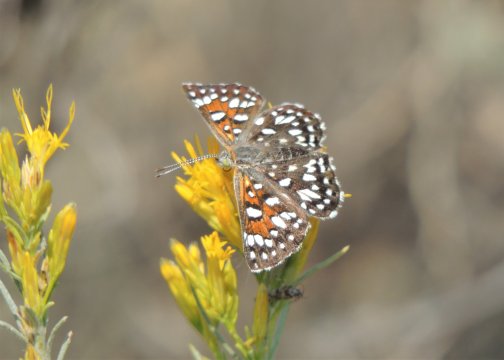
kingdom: Animalia
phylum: Arthropoda
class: Insecta
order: Lepidoptera
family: Riodinidae
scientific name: Riodinidae
